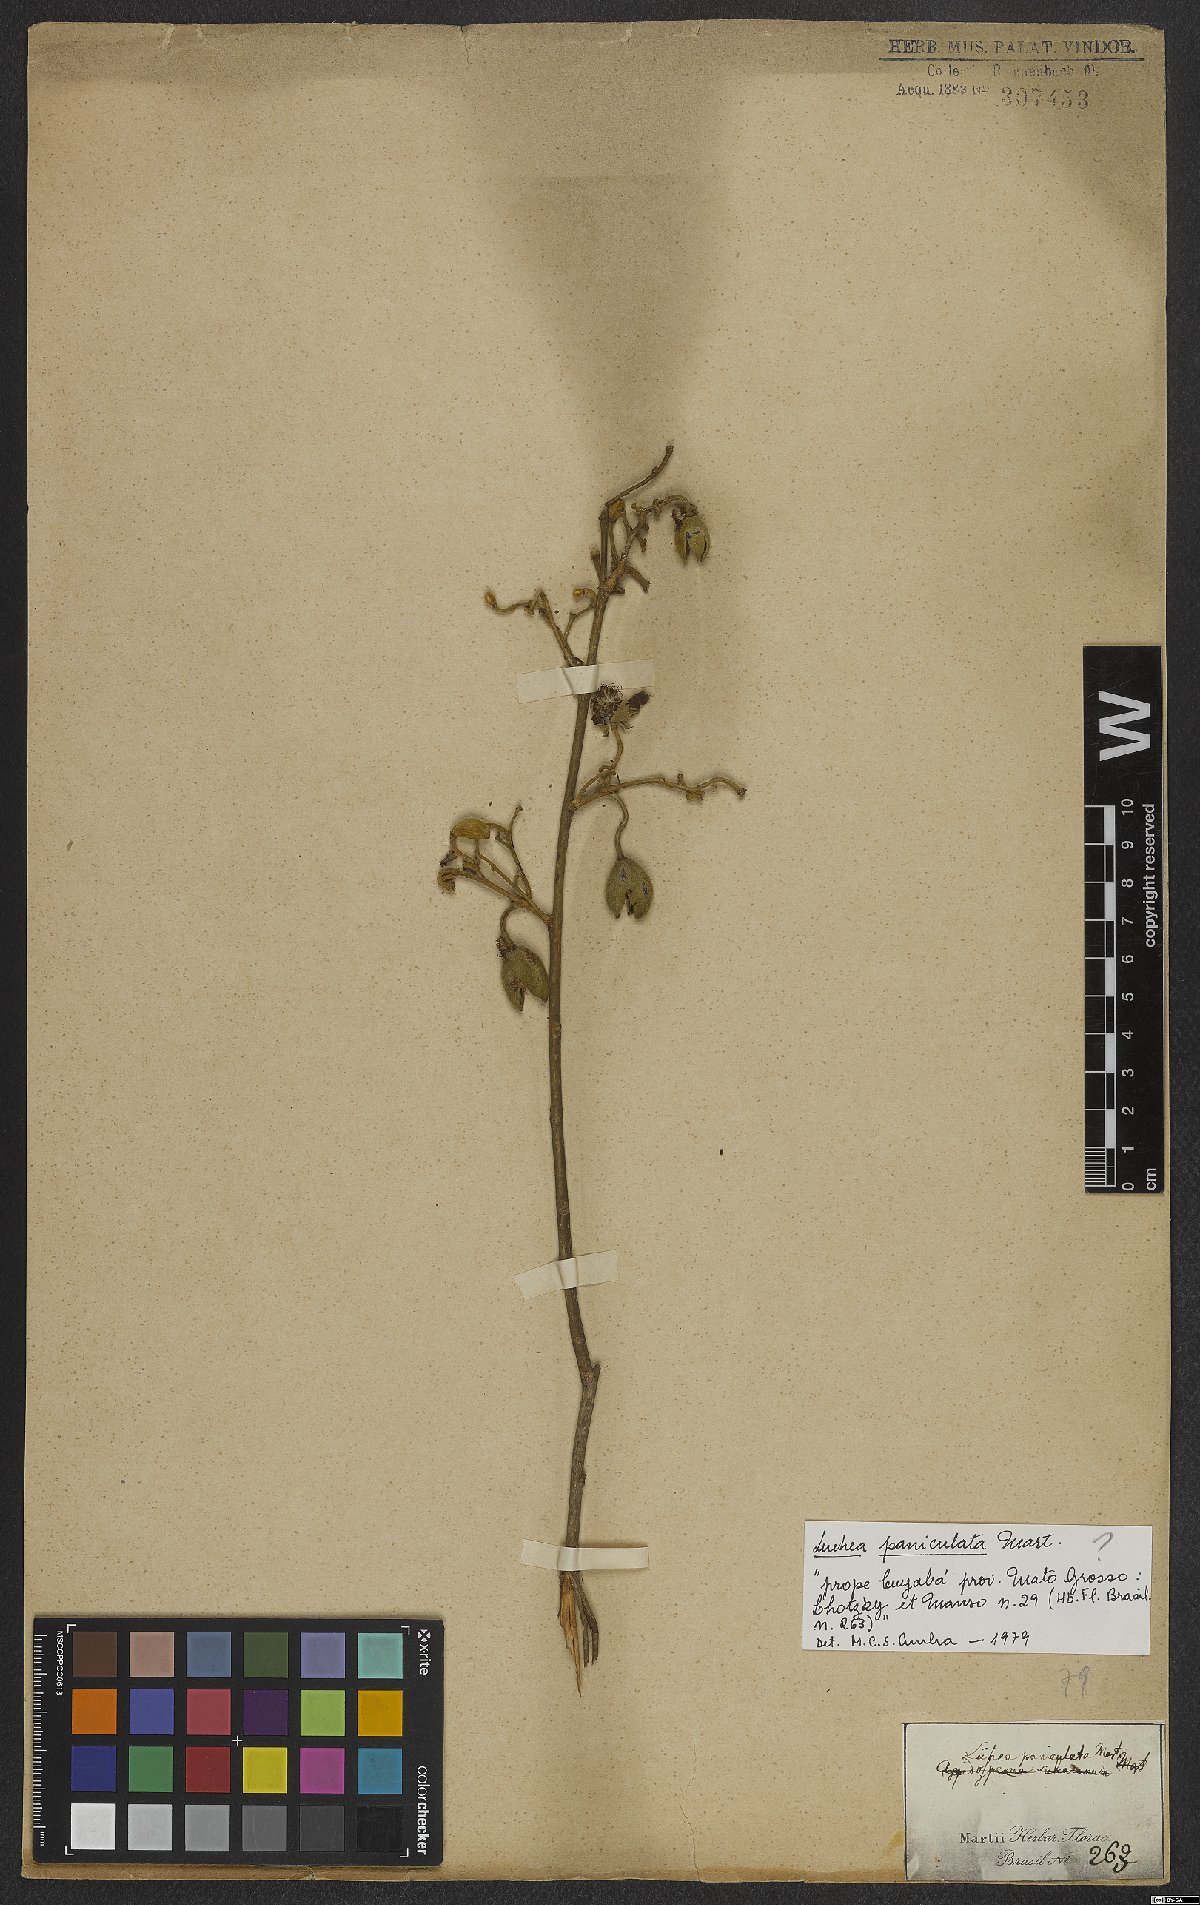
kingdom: Plantae
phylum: Tracheophyta
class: Magnoliopsida
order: Malvales
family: Malvaceae
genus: Luehea
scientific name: Luehea paniculata
